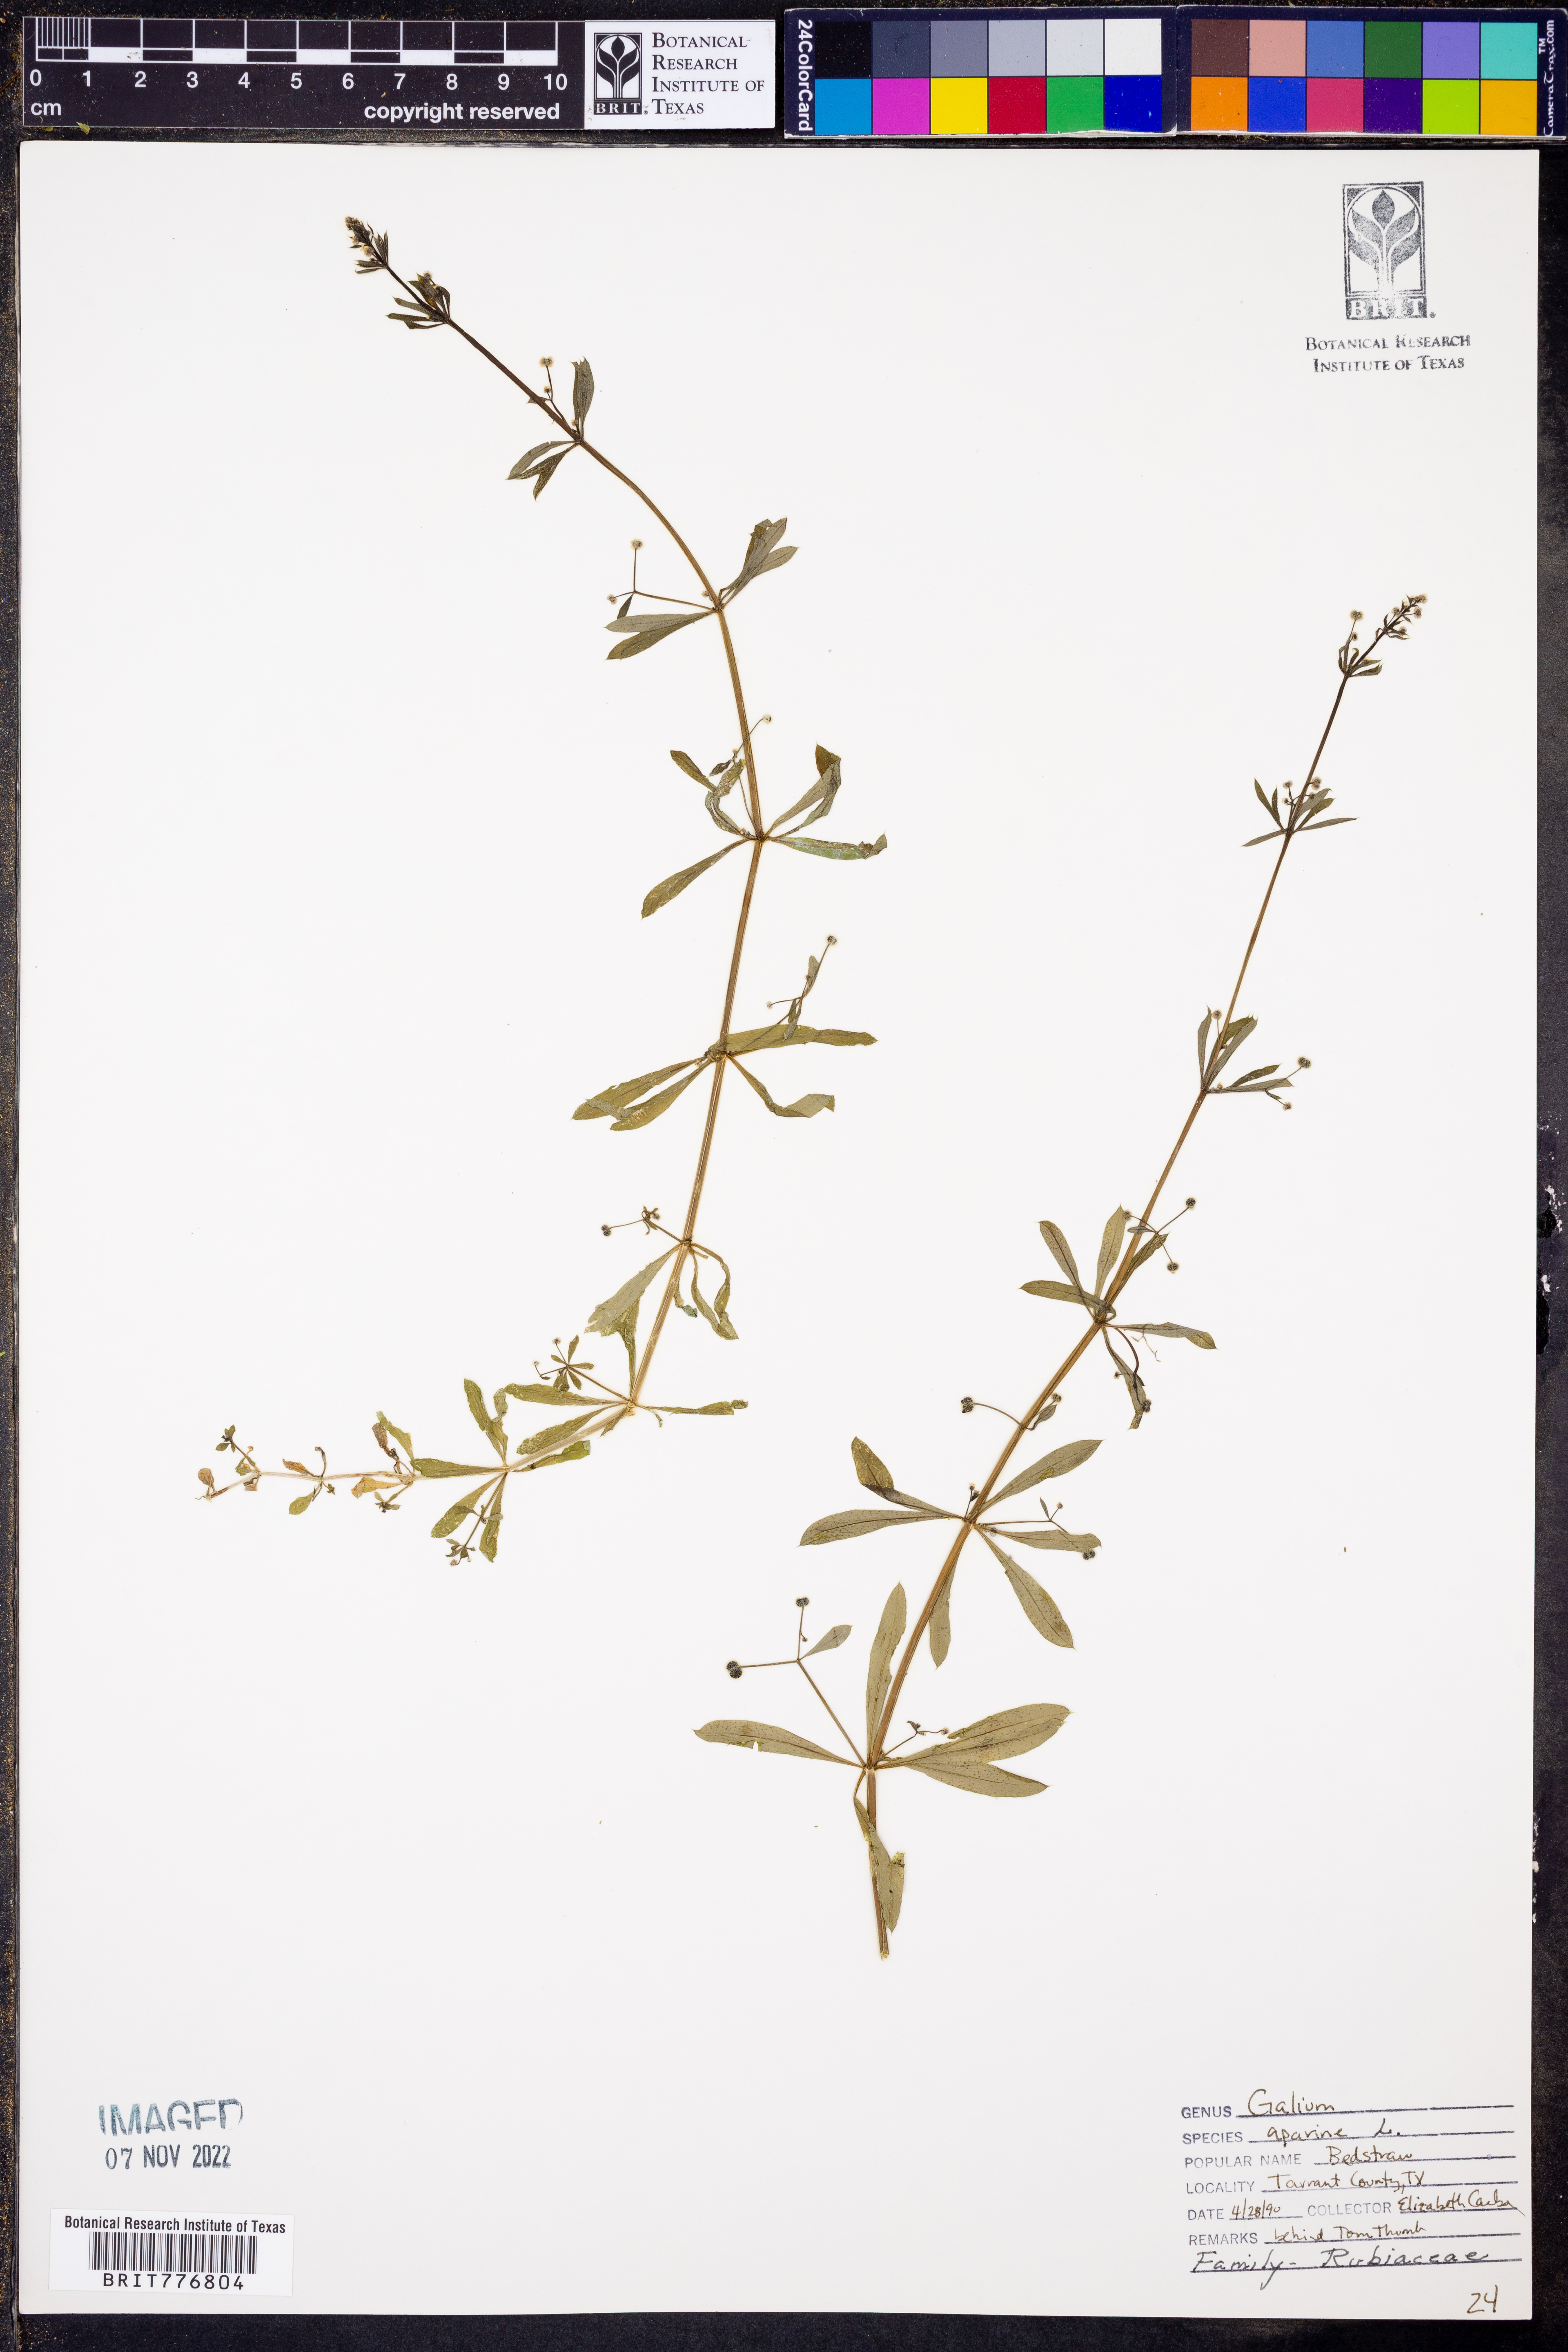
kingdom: Plantae
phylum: Tracheophyta
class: Magnoliopsida
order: Gentianales
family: Rubiaceae
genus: Galium
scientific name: Galium aparine
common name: Cleavers
